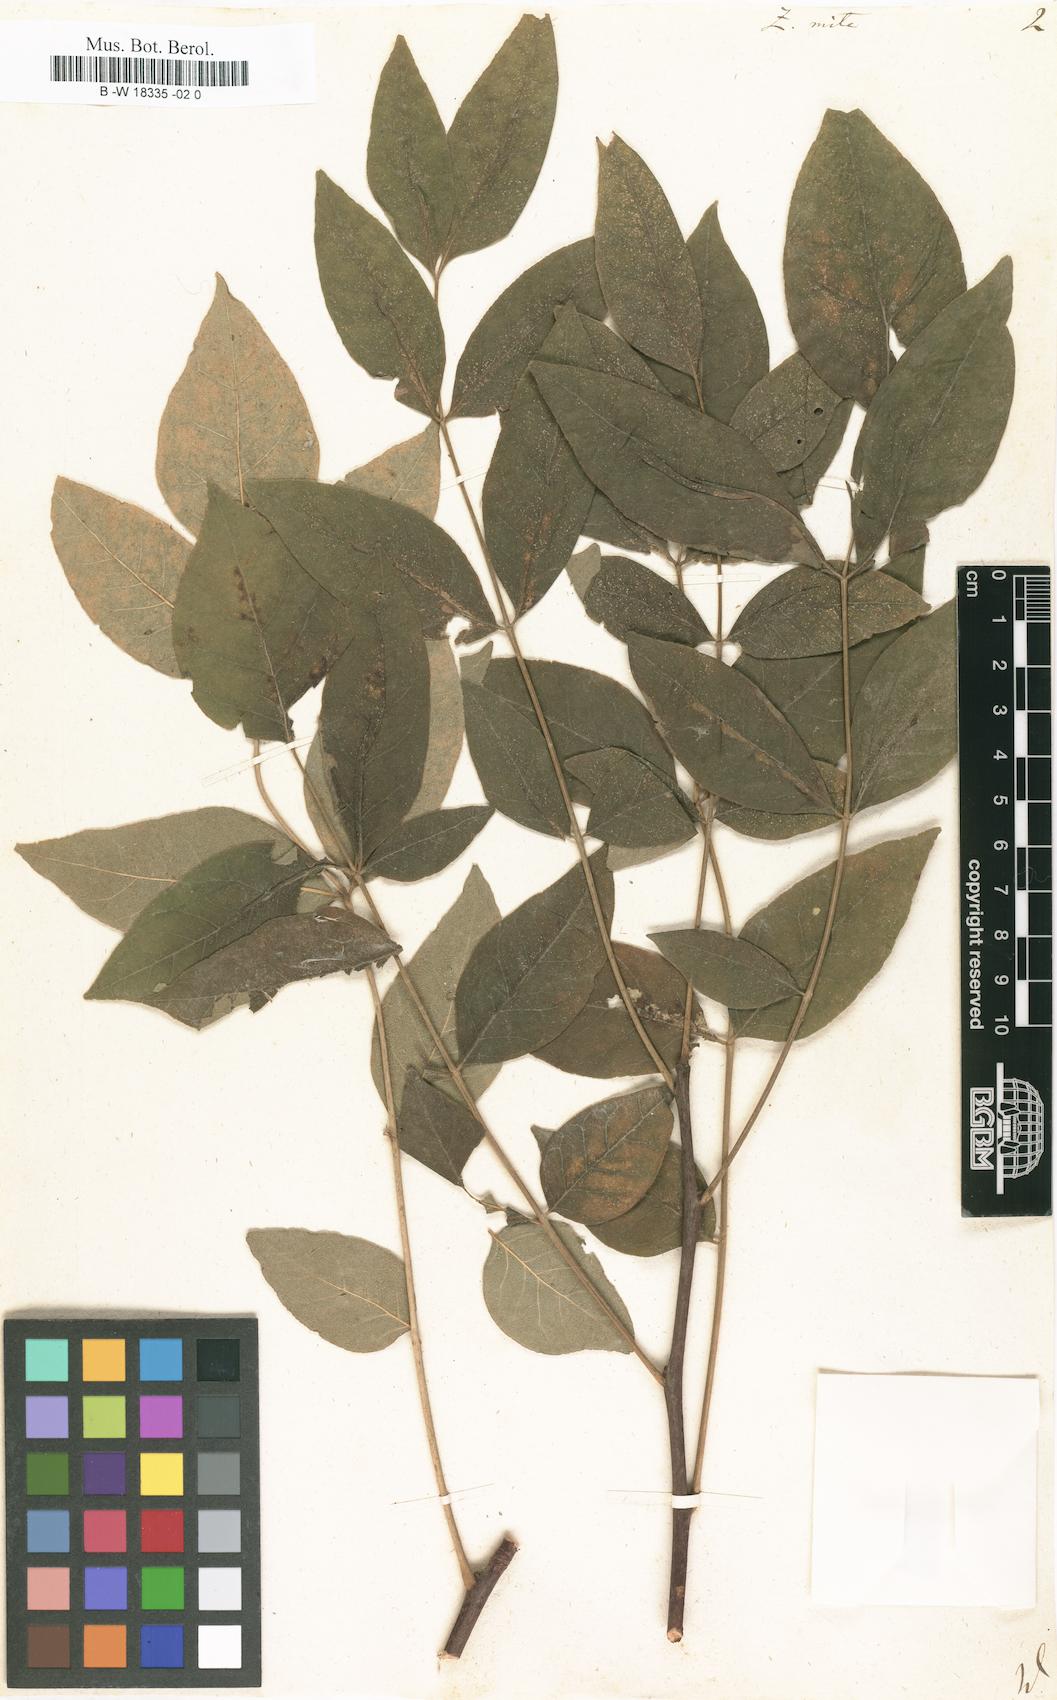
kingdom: Plantae
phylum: Tracheophyta
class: Magnoliopsida
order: Sapindales
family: Rutaceae
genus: Zanthoxylum
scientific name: Zanthoxylum americanum
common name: Northern prickly-ash
